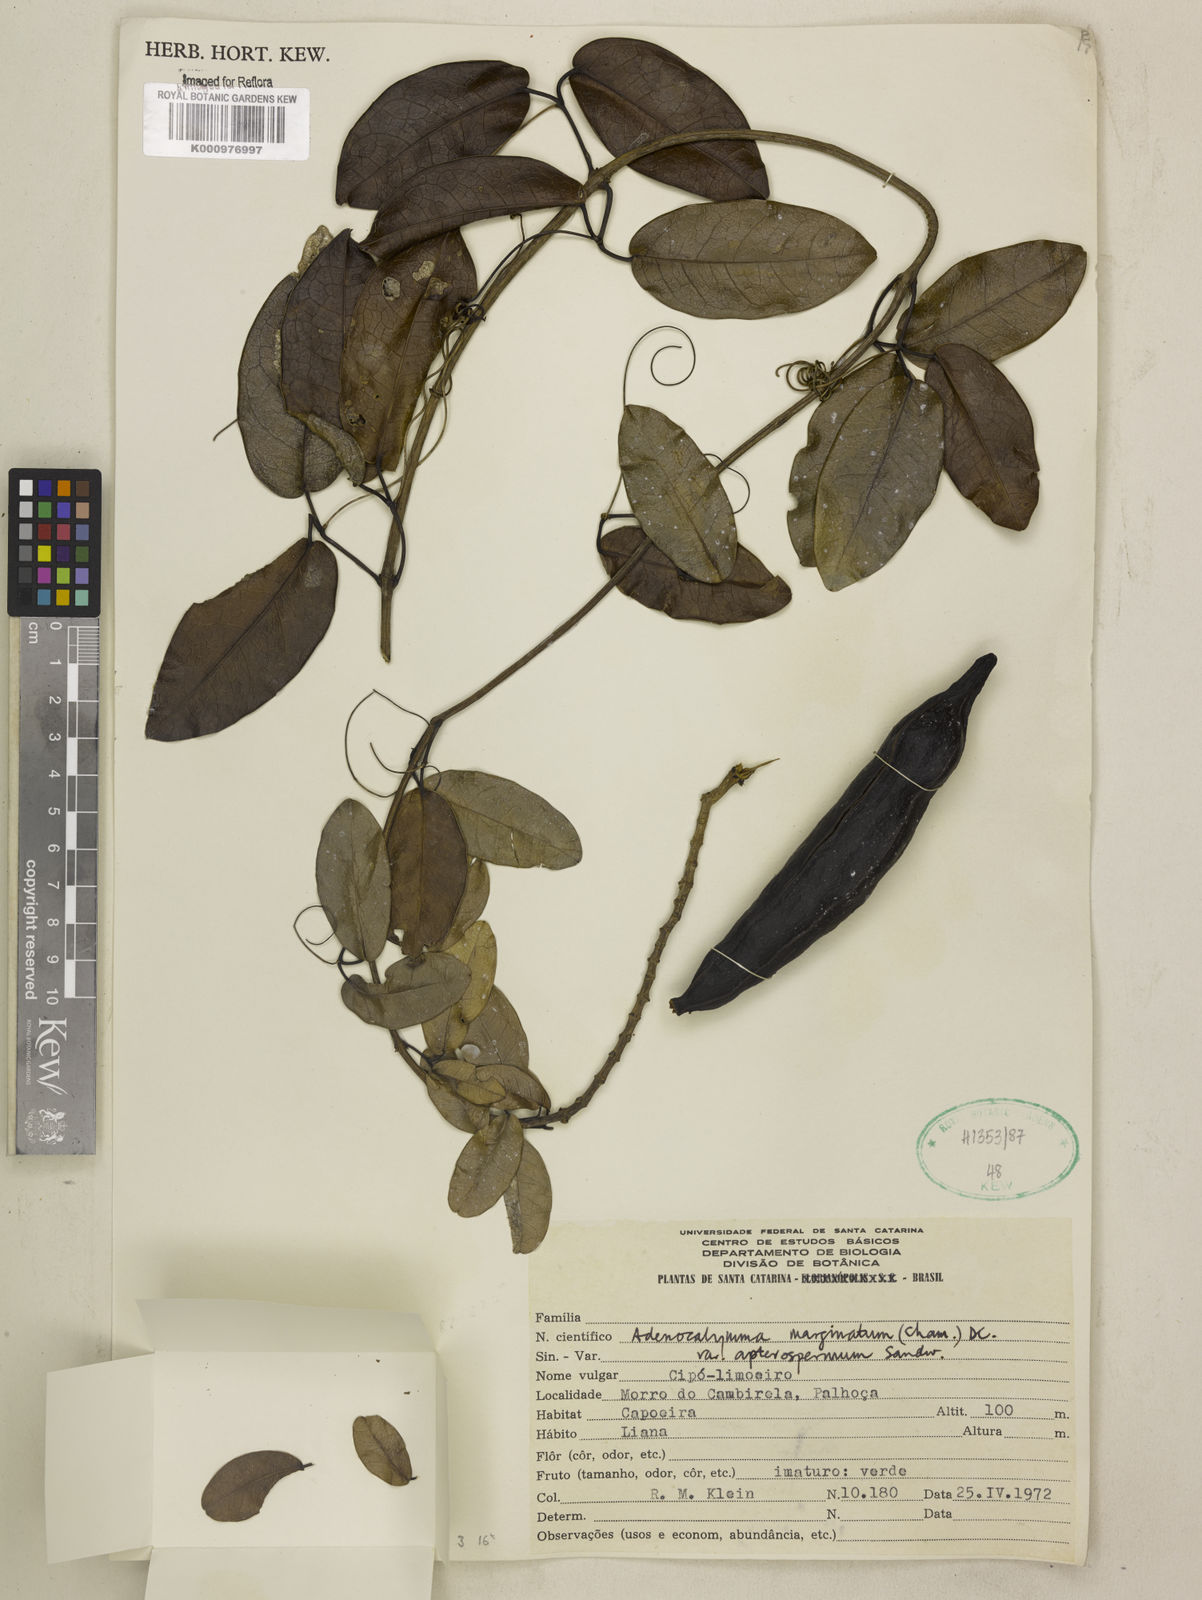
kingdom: Plantae
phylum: Tracheophyta
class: Magnoliopsida
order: Lamiales
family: Bignoniaceae
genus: Adenocalymma
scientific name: Adenocalymma apterospermum
